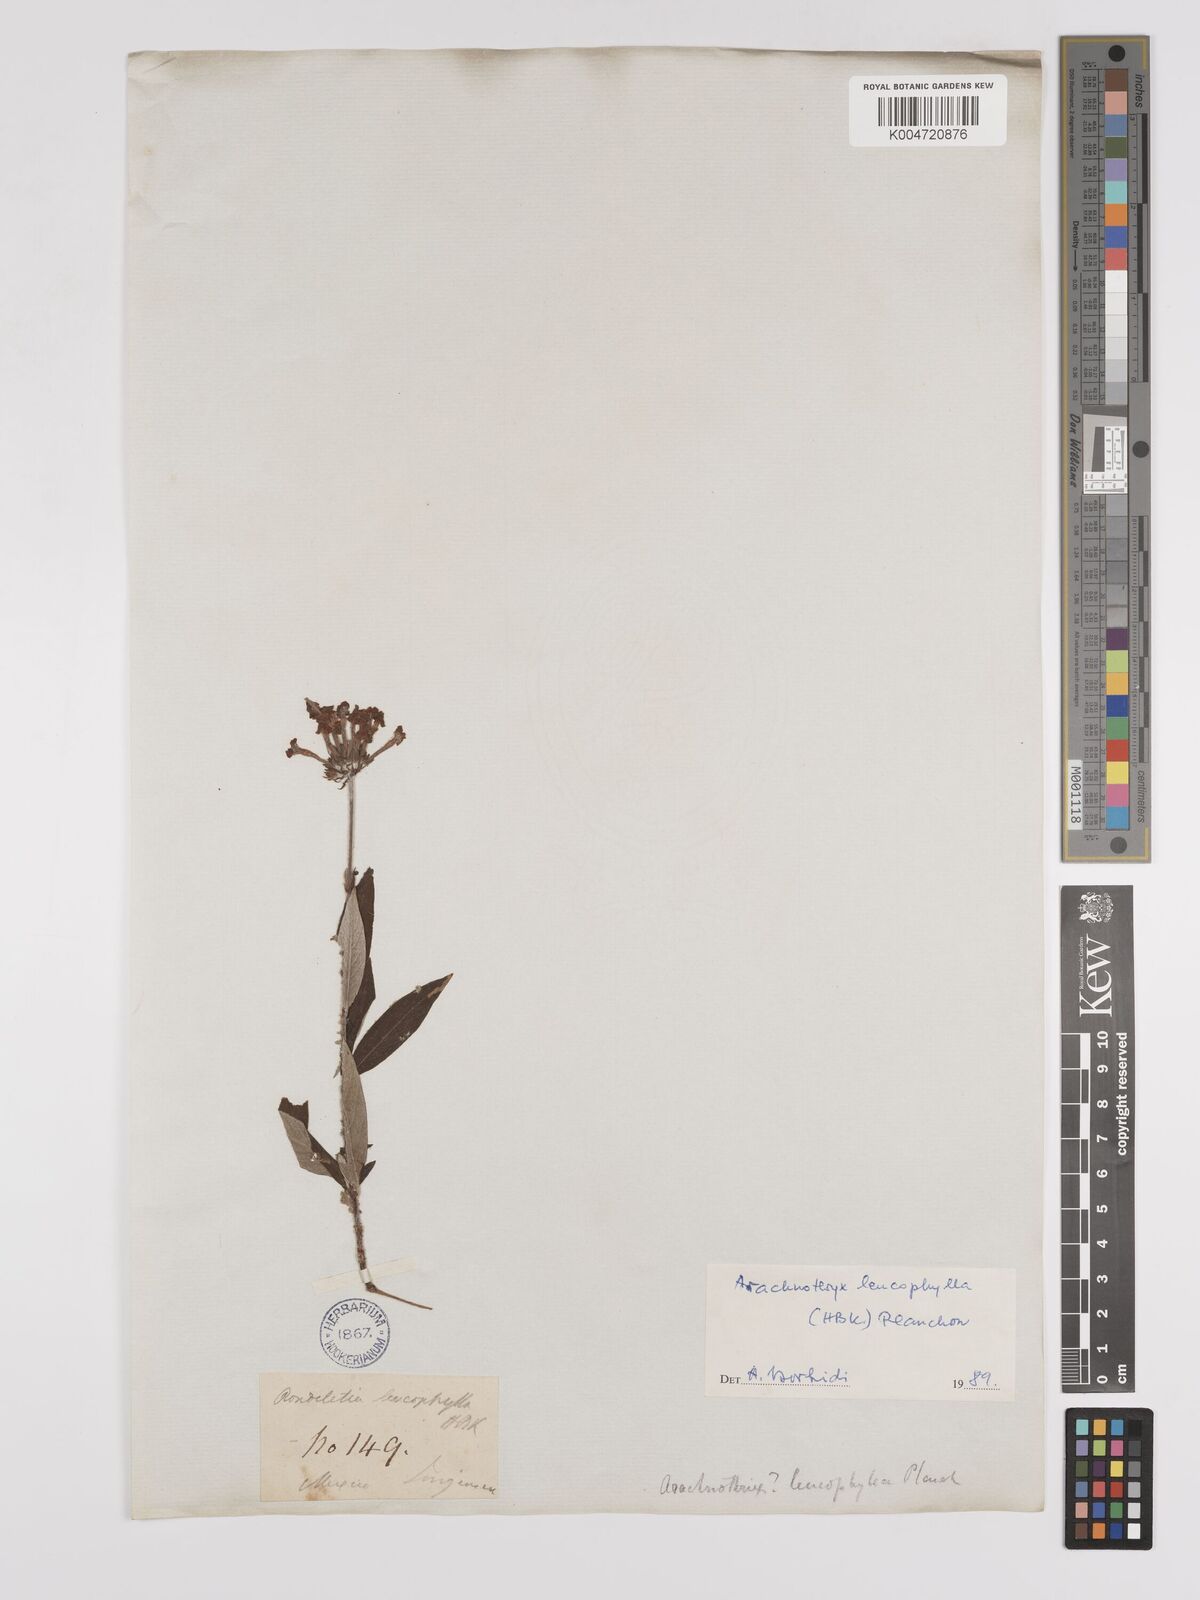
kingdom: Plantae
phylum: Tracheophyta
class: Magnoliopsida
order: Gentianales
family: Rubiaceae
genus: Arachnothryx
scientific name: Arachnothryx leucophylla
